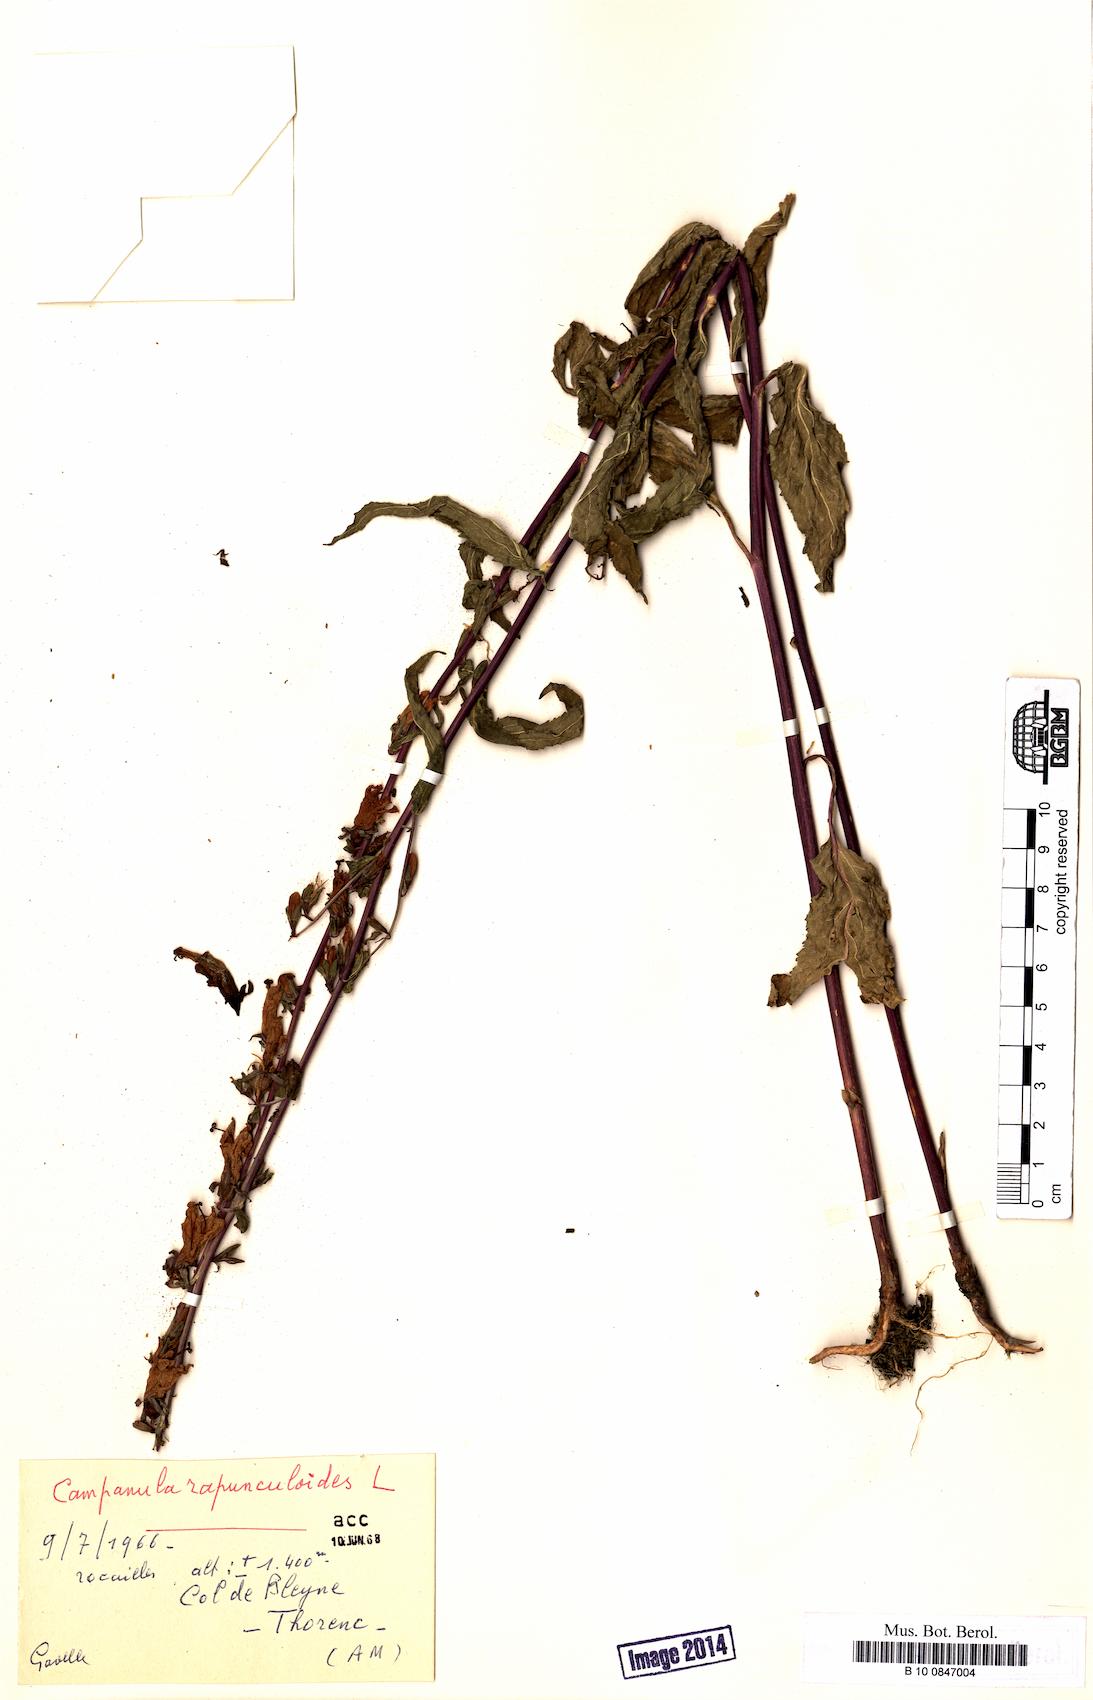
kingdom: Plantae
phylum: Tracheophyta
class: Magnoliopsida
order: Asterales
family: Campanulaceae
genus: Campanula
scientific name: Campanula rapunculoides
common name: Creeping bellflower
